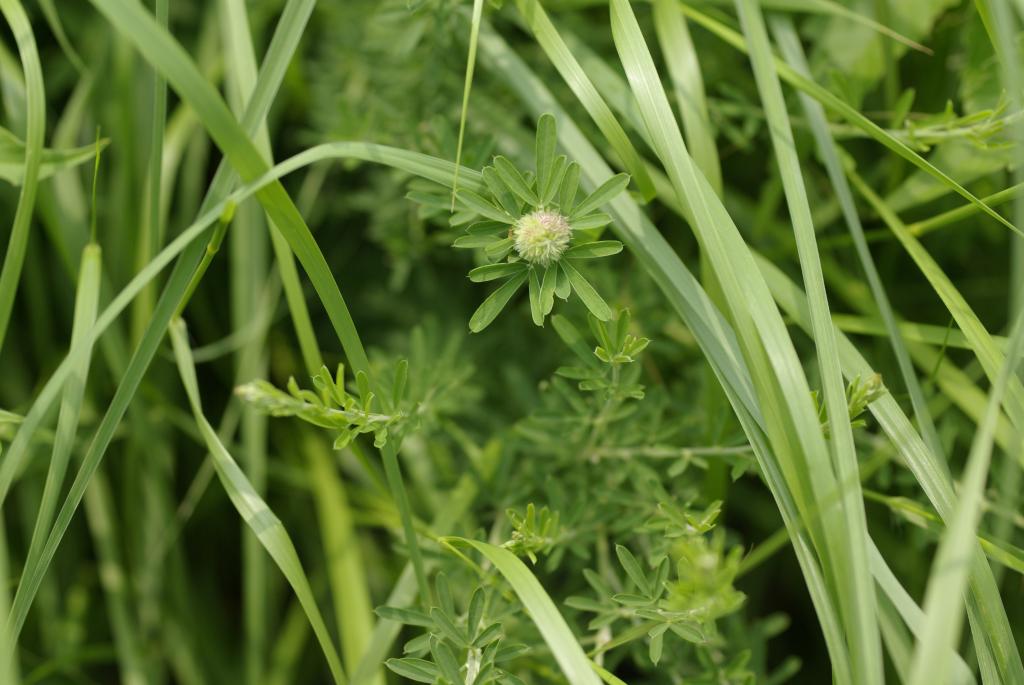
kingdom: Plantae
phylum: Tracheophyta
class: Magnoliopsida
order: Fabales
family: Fabaceae
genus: Lespedeza
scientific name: Lespedeza cuneata
